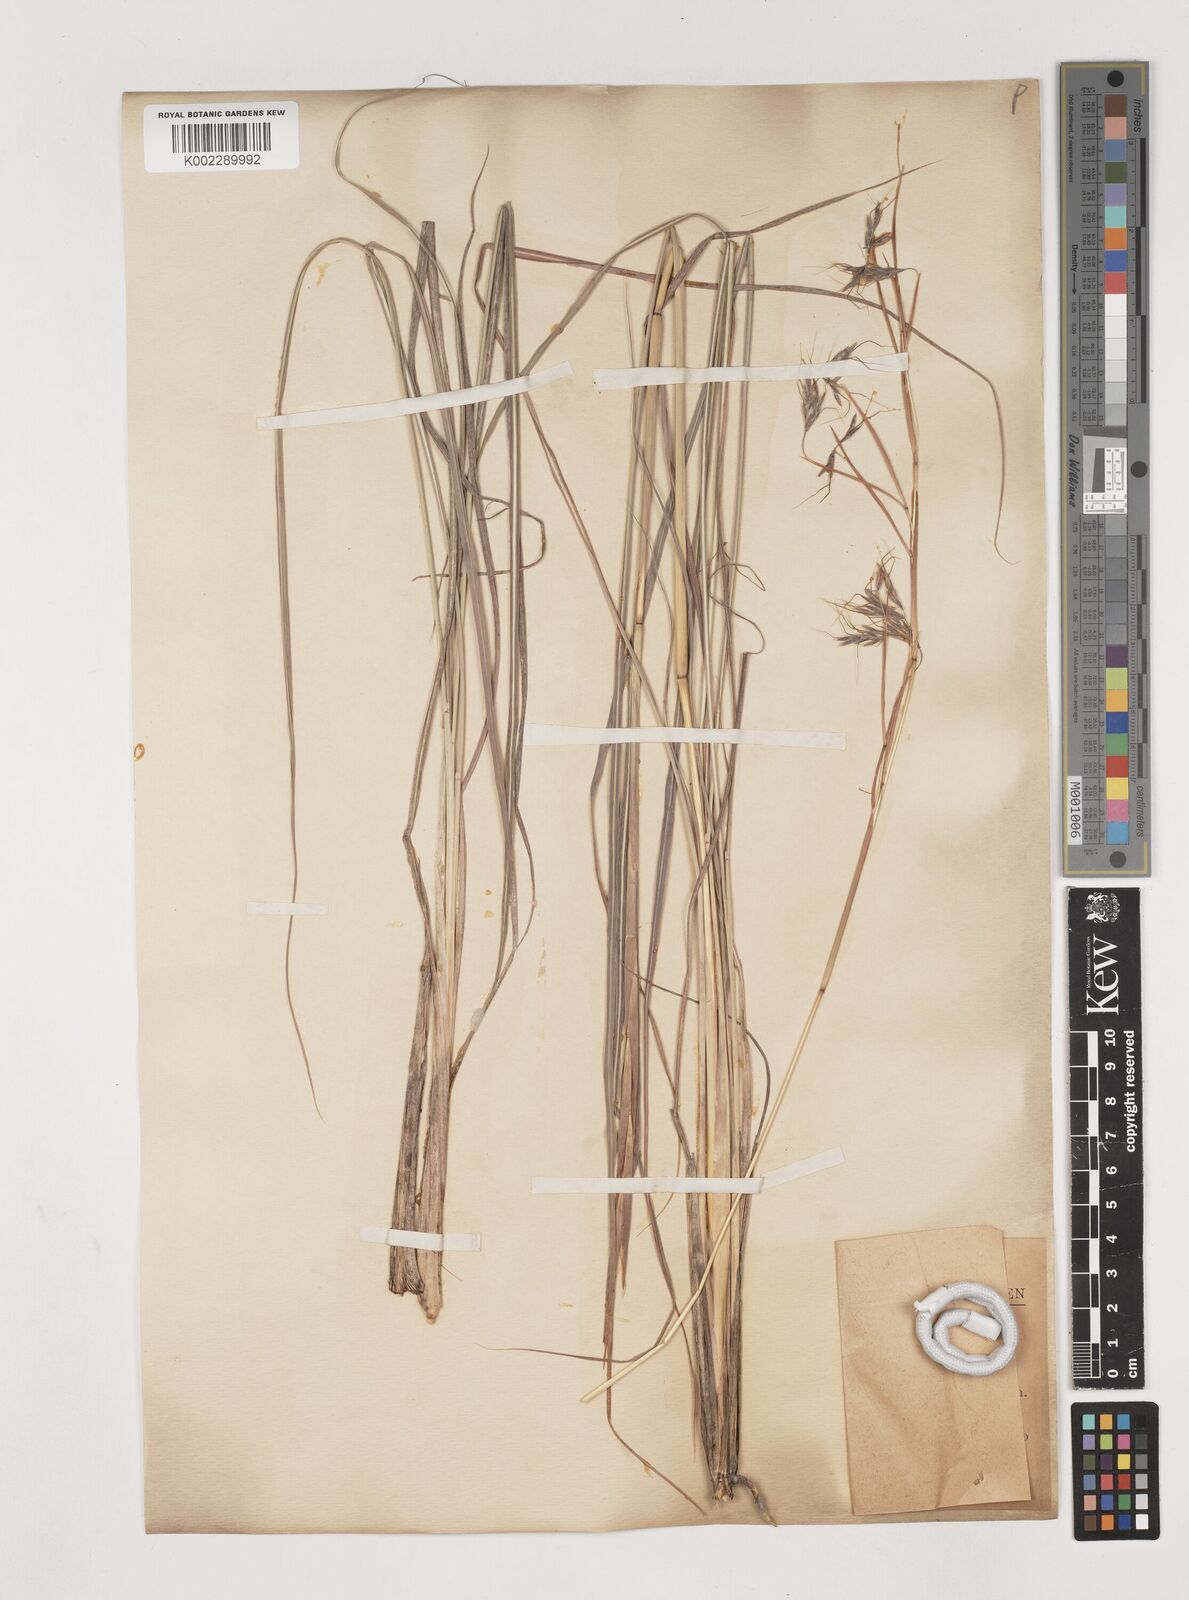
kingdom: Plantae
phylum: Tracheophyta
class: Liliopsida
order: Poales
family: Poaceae
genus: Hyparrhenia
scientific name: Hyparrhenia hirta
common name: Thatching grass
